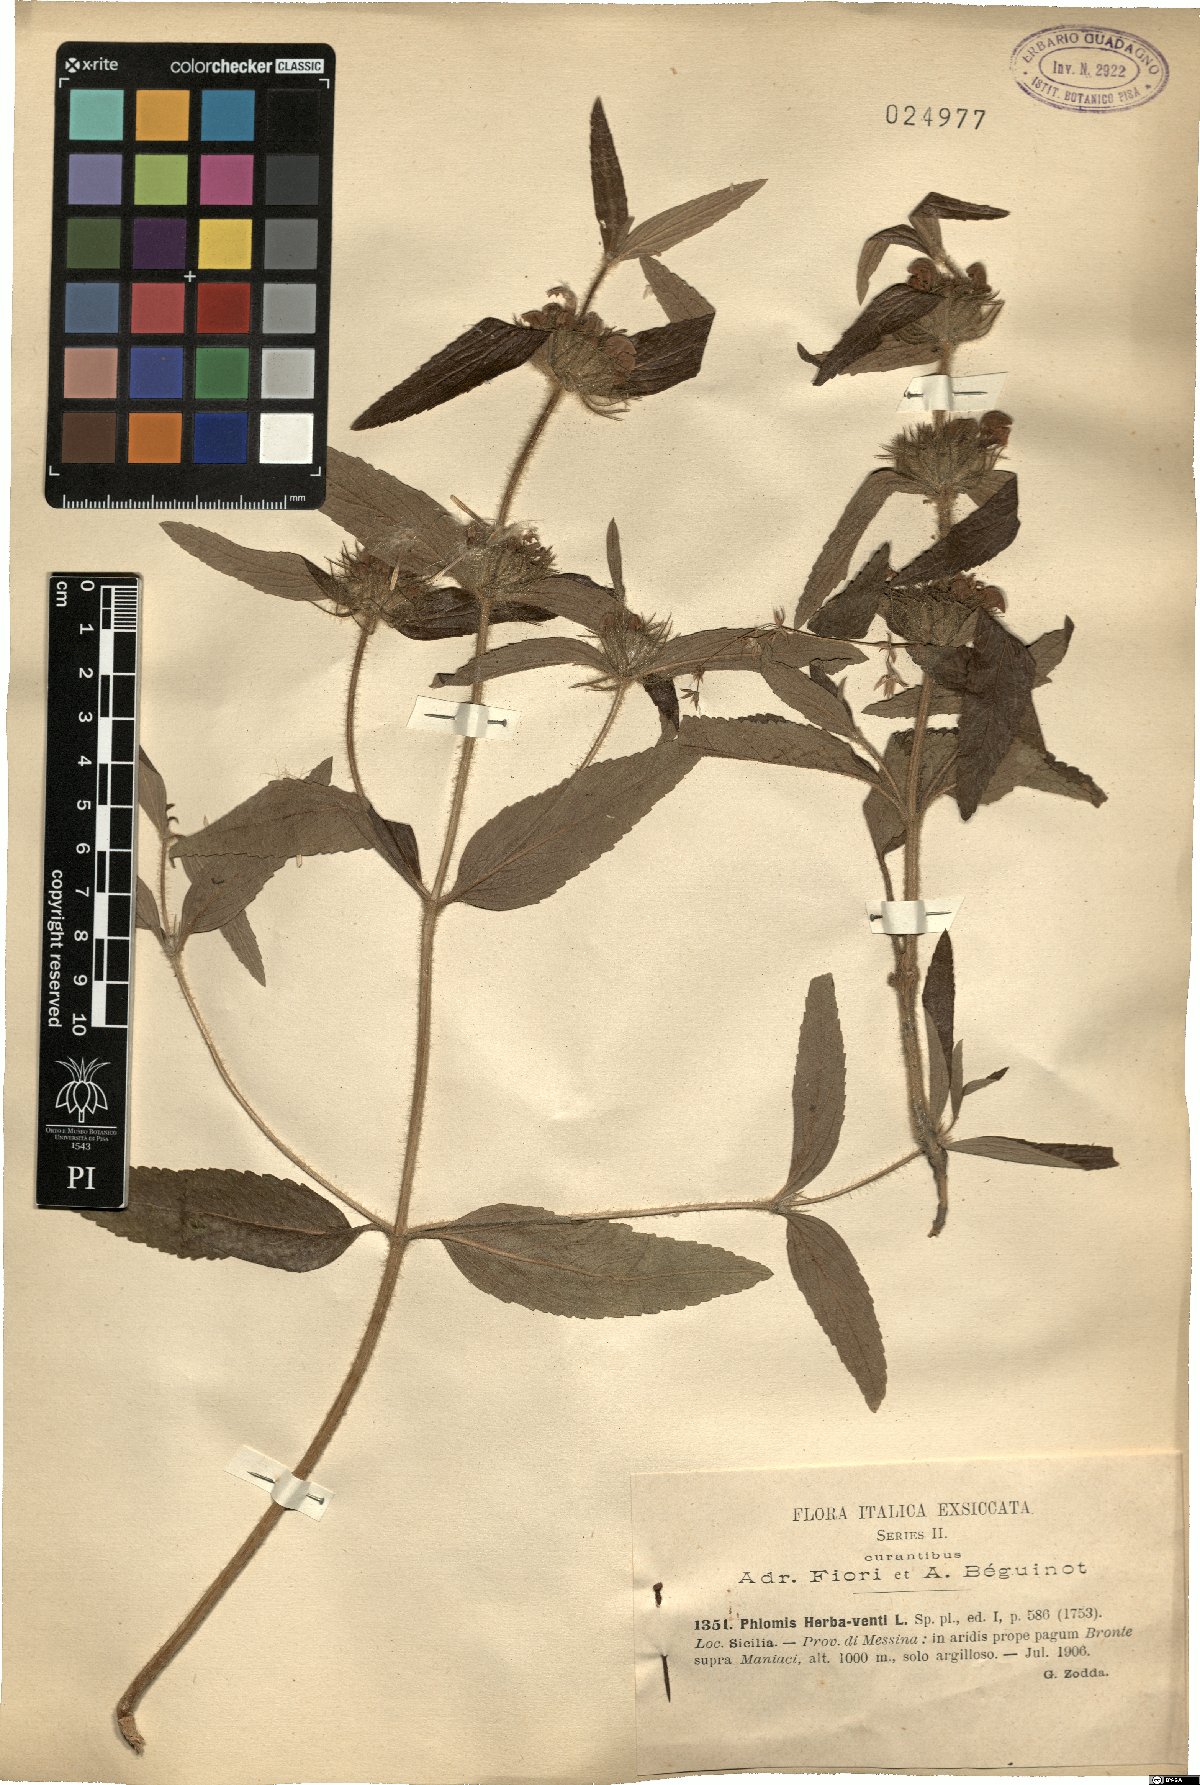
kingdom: Plantae
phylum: Tracheophyta
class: Magnoliopsida
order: Lamiales
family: Lamiaceae
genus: Phlomis
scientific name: Phlomis herba-venti
